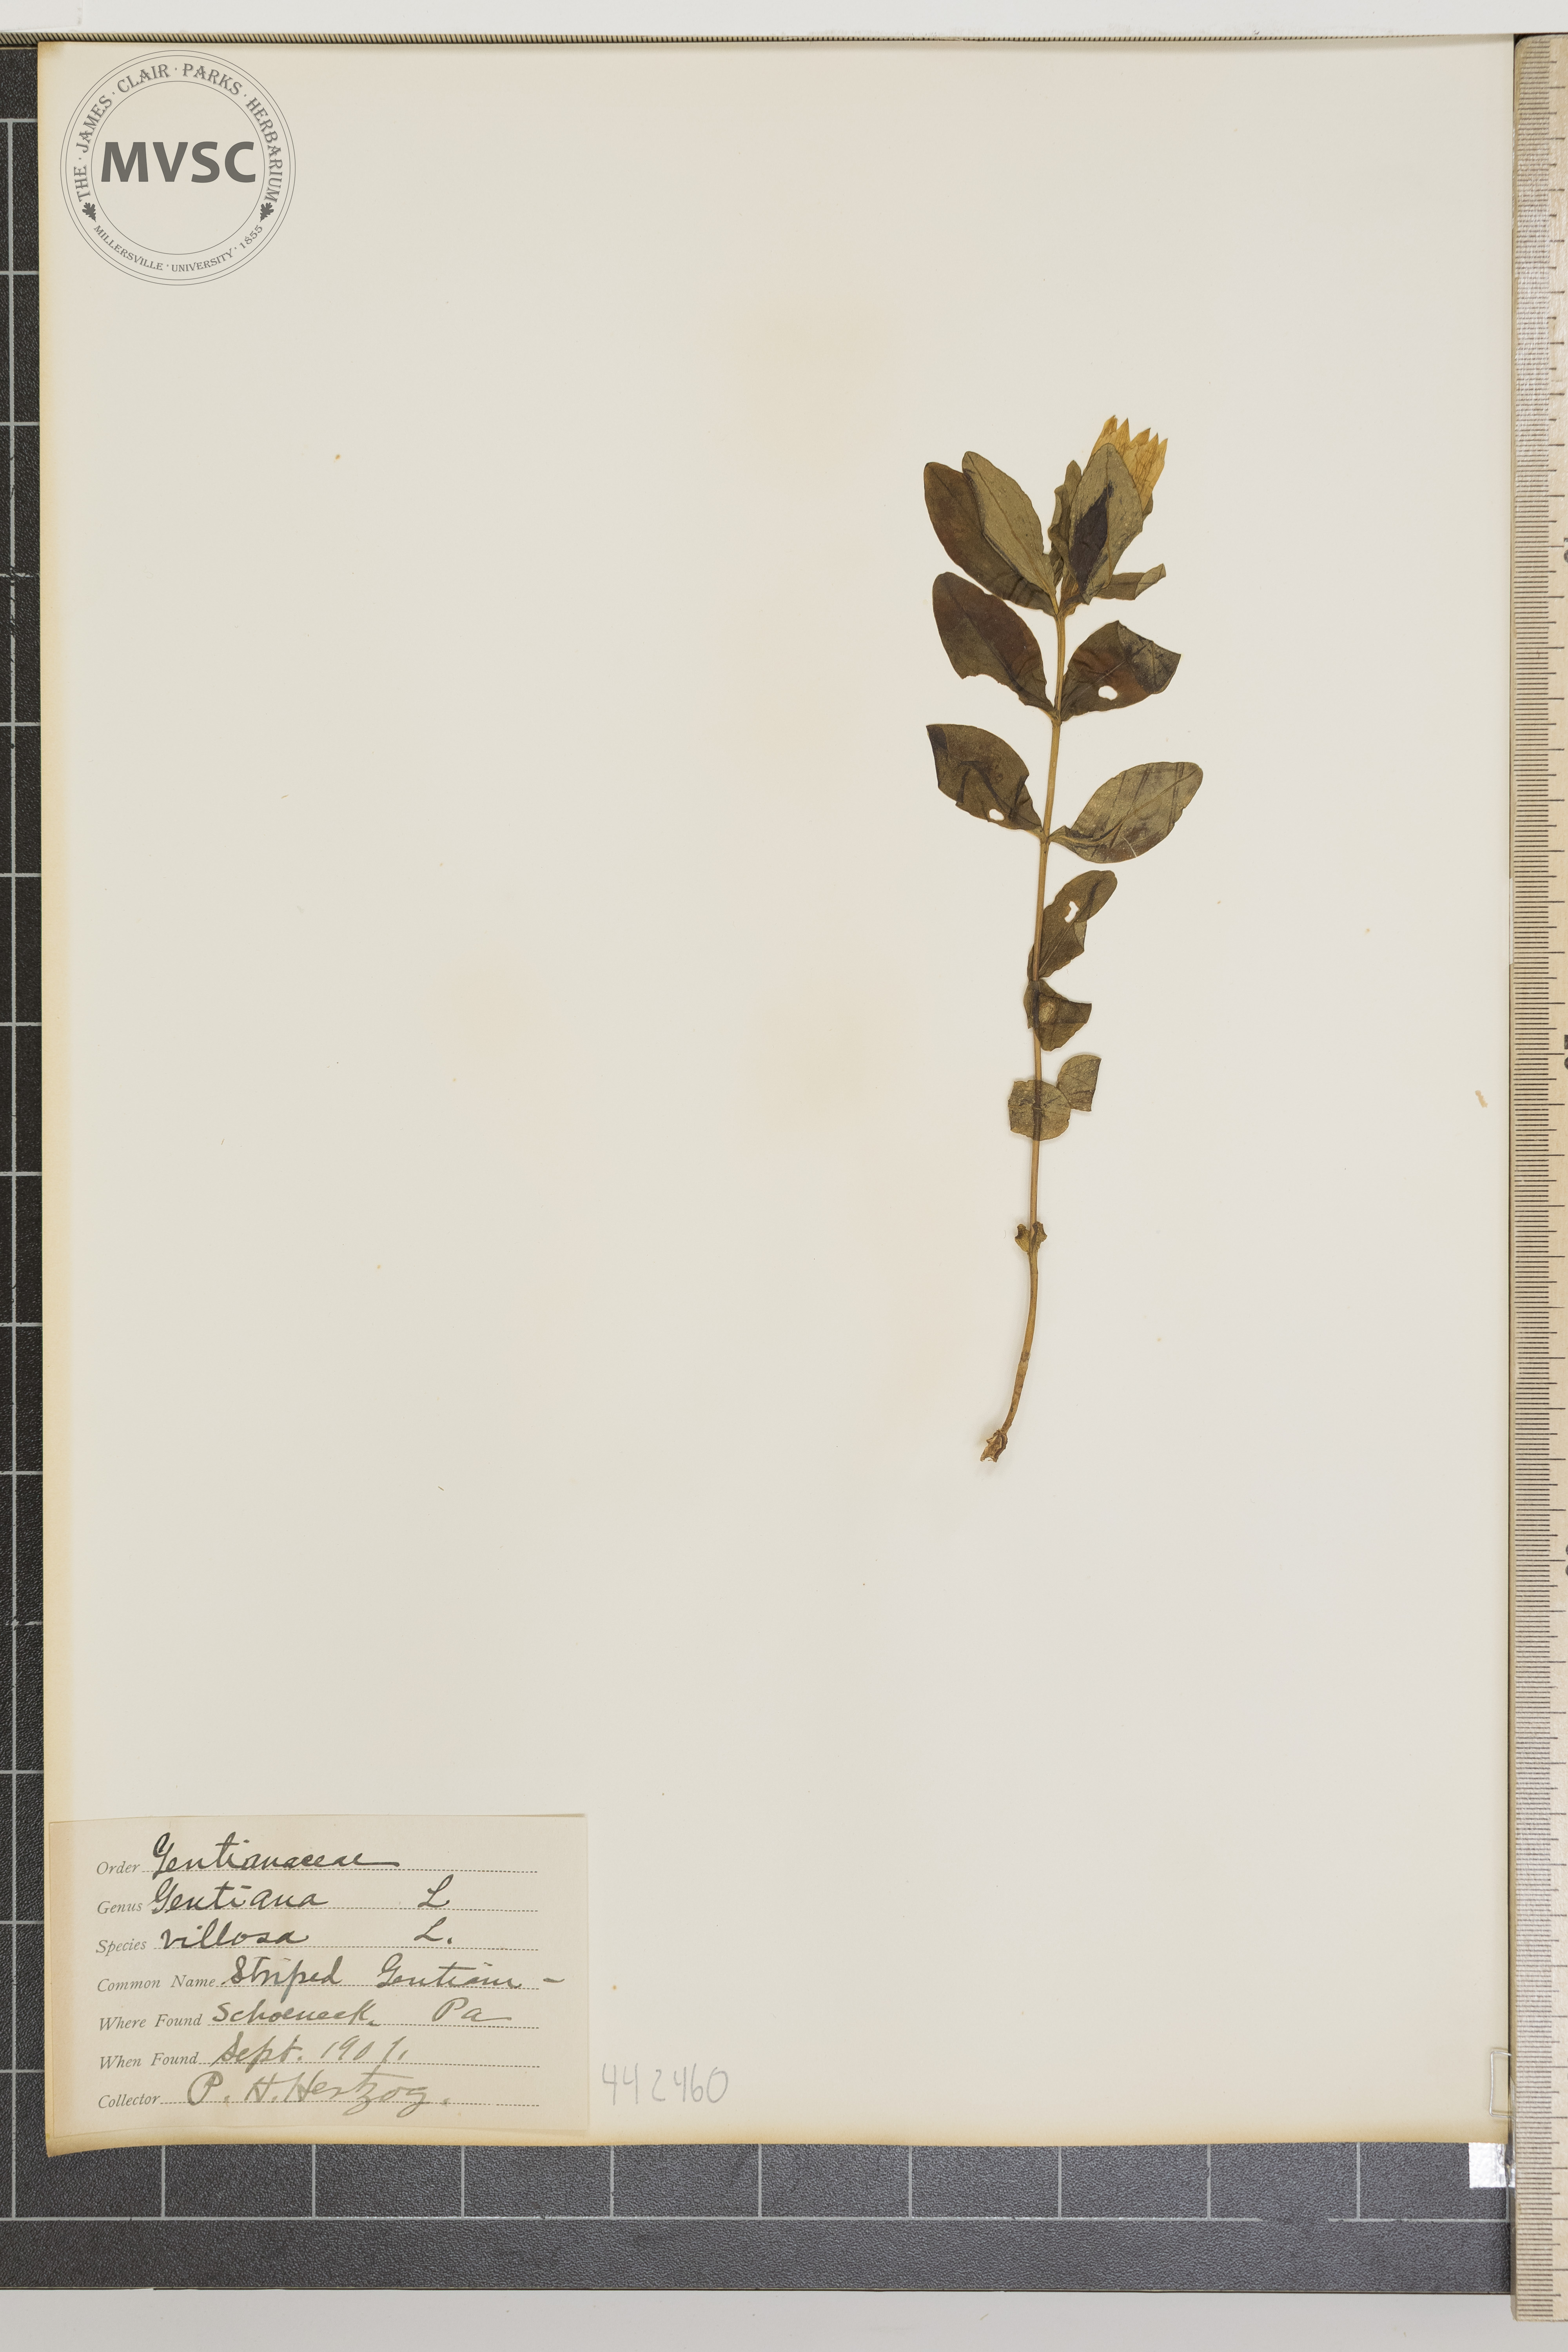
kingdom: Plantae
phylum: Tracheophyta
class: Magnoliopsida
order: Gentianales
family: Gentianaceae
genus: Gentiana
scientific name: Gentiana villosa
